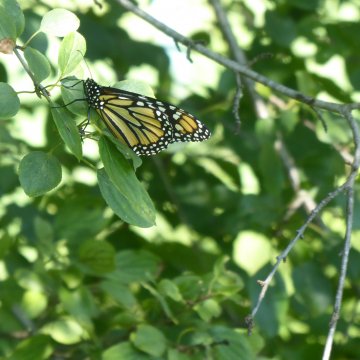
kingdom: Animalia
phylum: Arthropoda
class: Insecta
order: Lepidoptera
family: Nymphalidae
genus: Danaus
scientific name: Danaus plexippus
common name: Monarch
